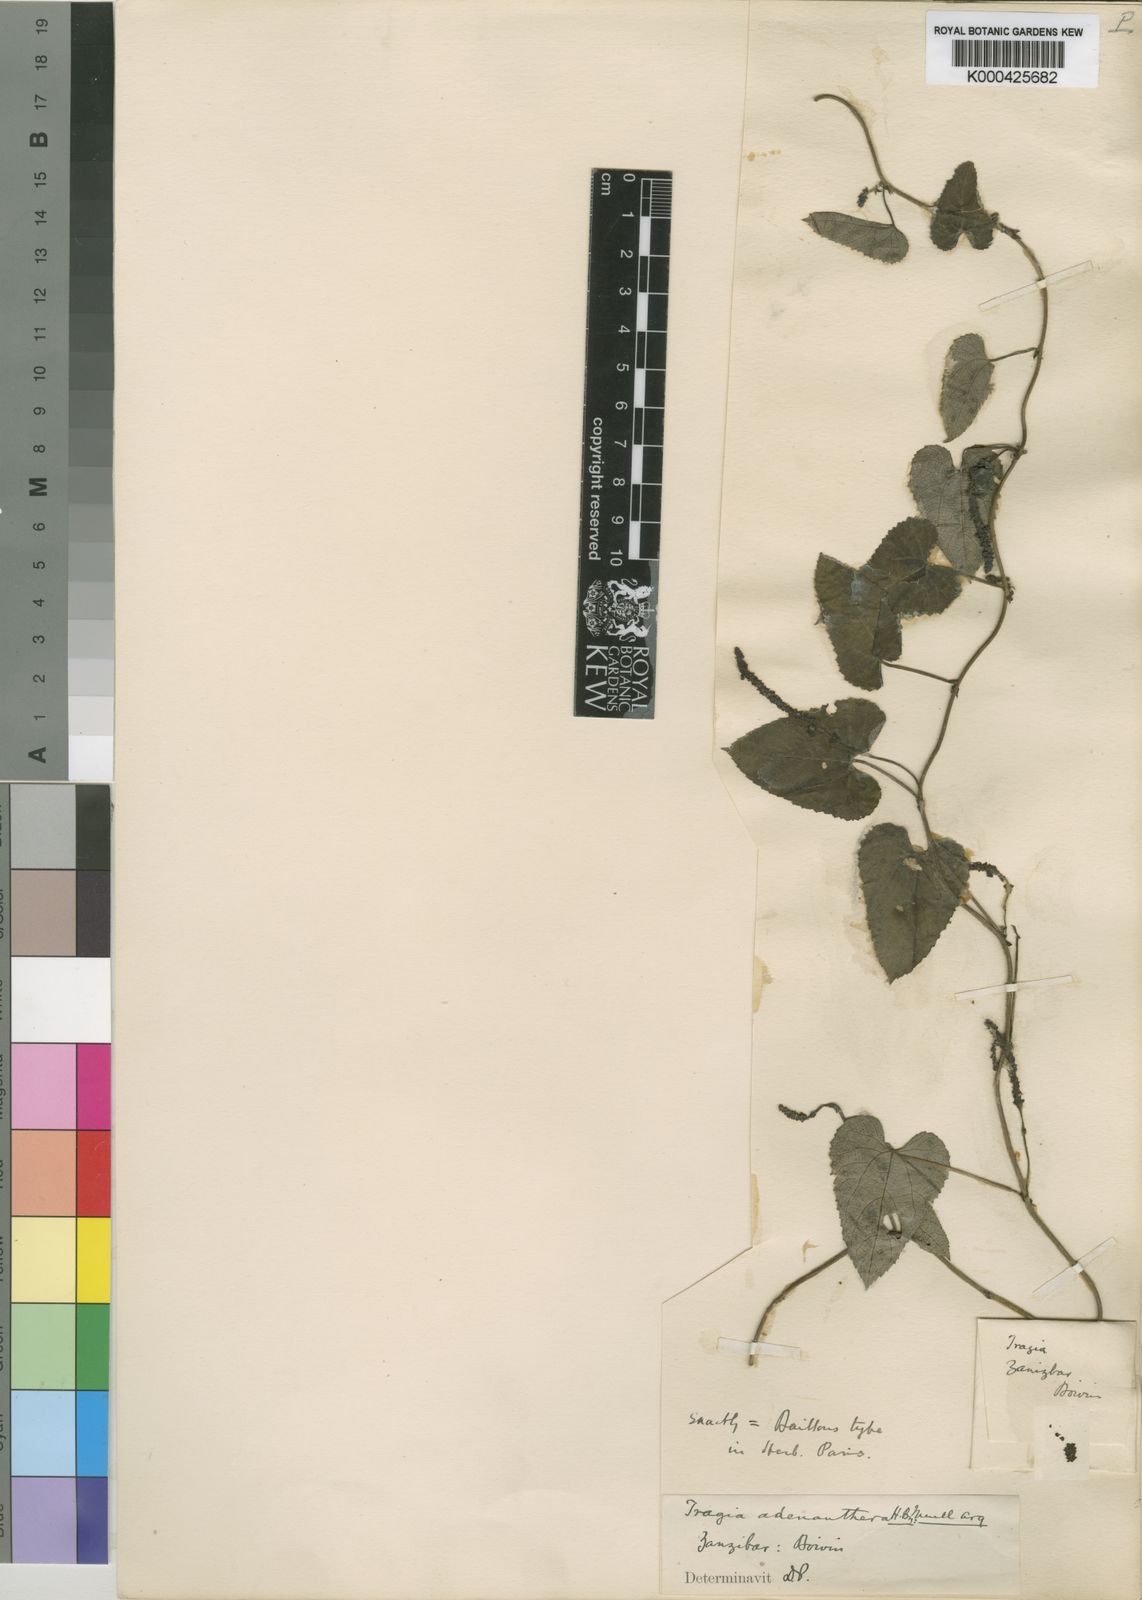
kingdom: Plantae
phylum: Tracheophyta
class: Magnoliopsida
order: Malpighiales
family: Euphorbiaceae
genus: Tragia
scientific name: Tragia adenanthera
